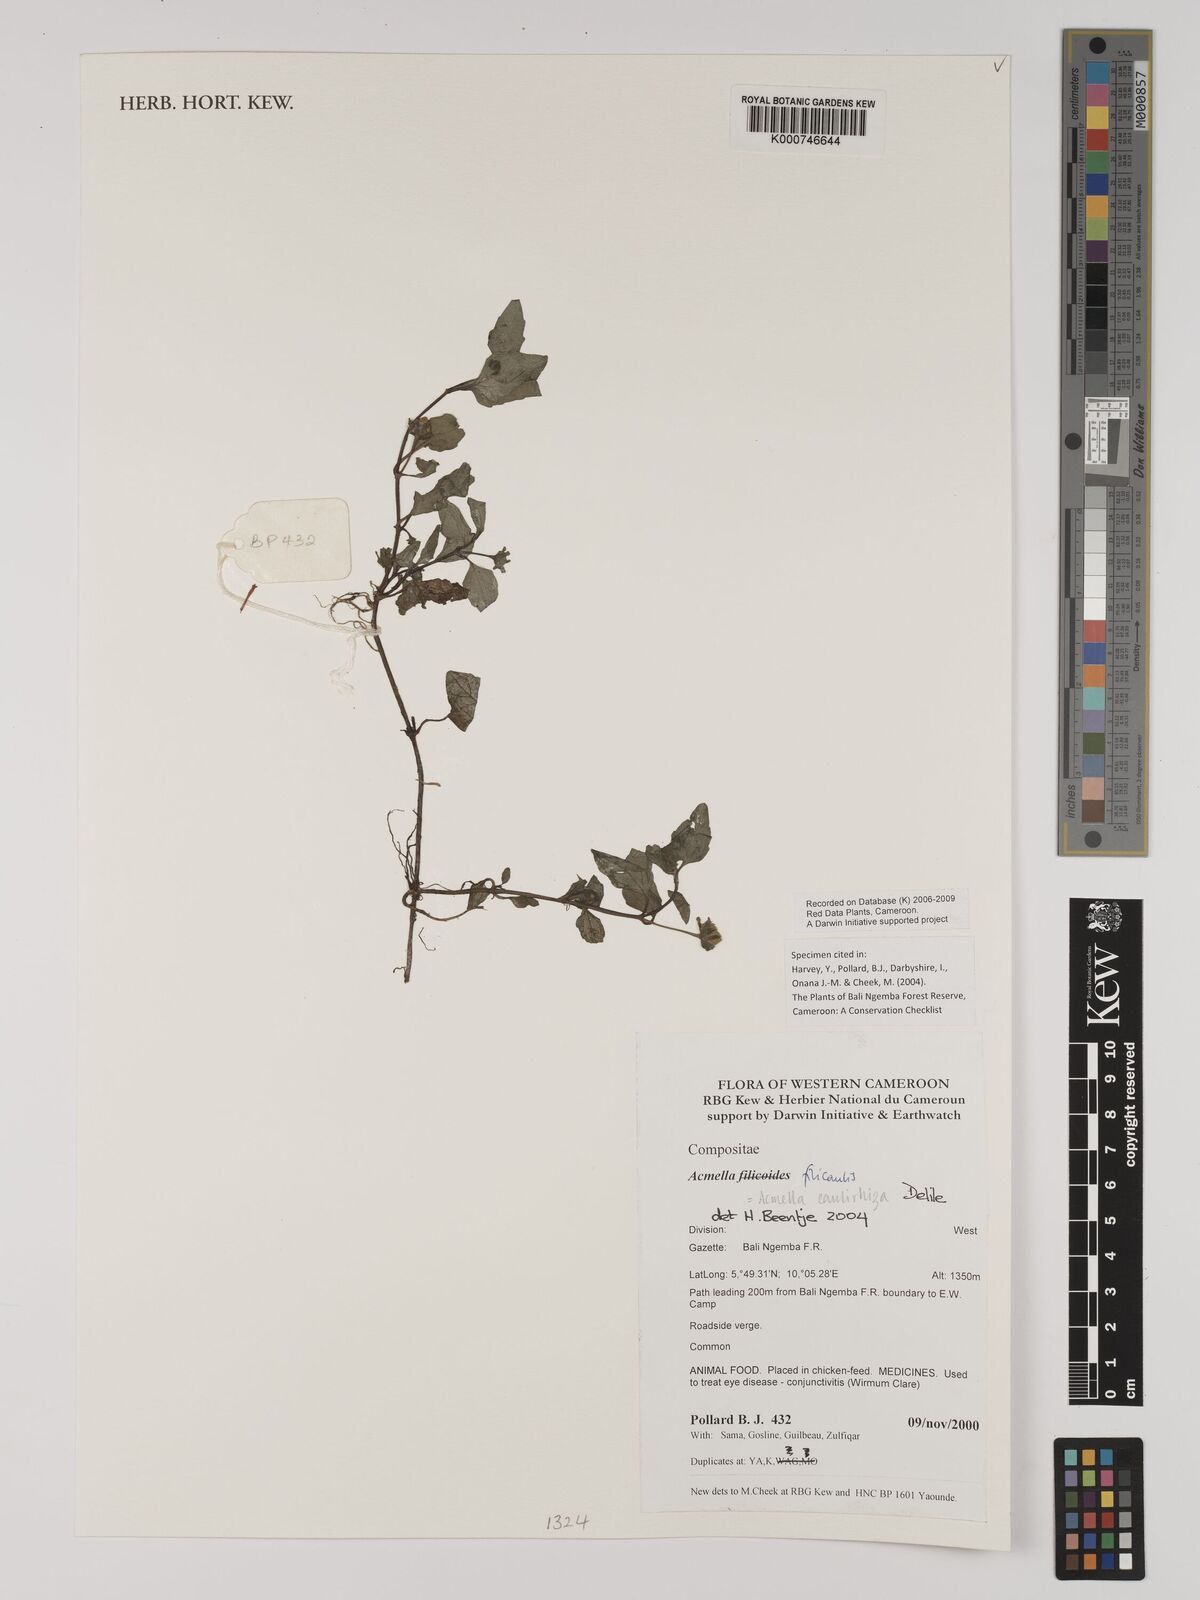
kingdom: Plantae
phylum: Tracheophyta
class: Magnoliopsida
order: Asterales
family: Asteraceae
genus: Acmella
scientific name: Acmella caulirhiza
